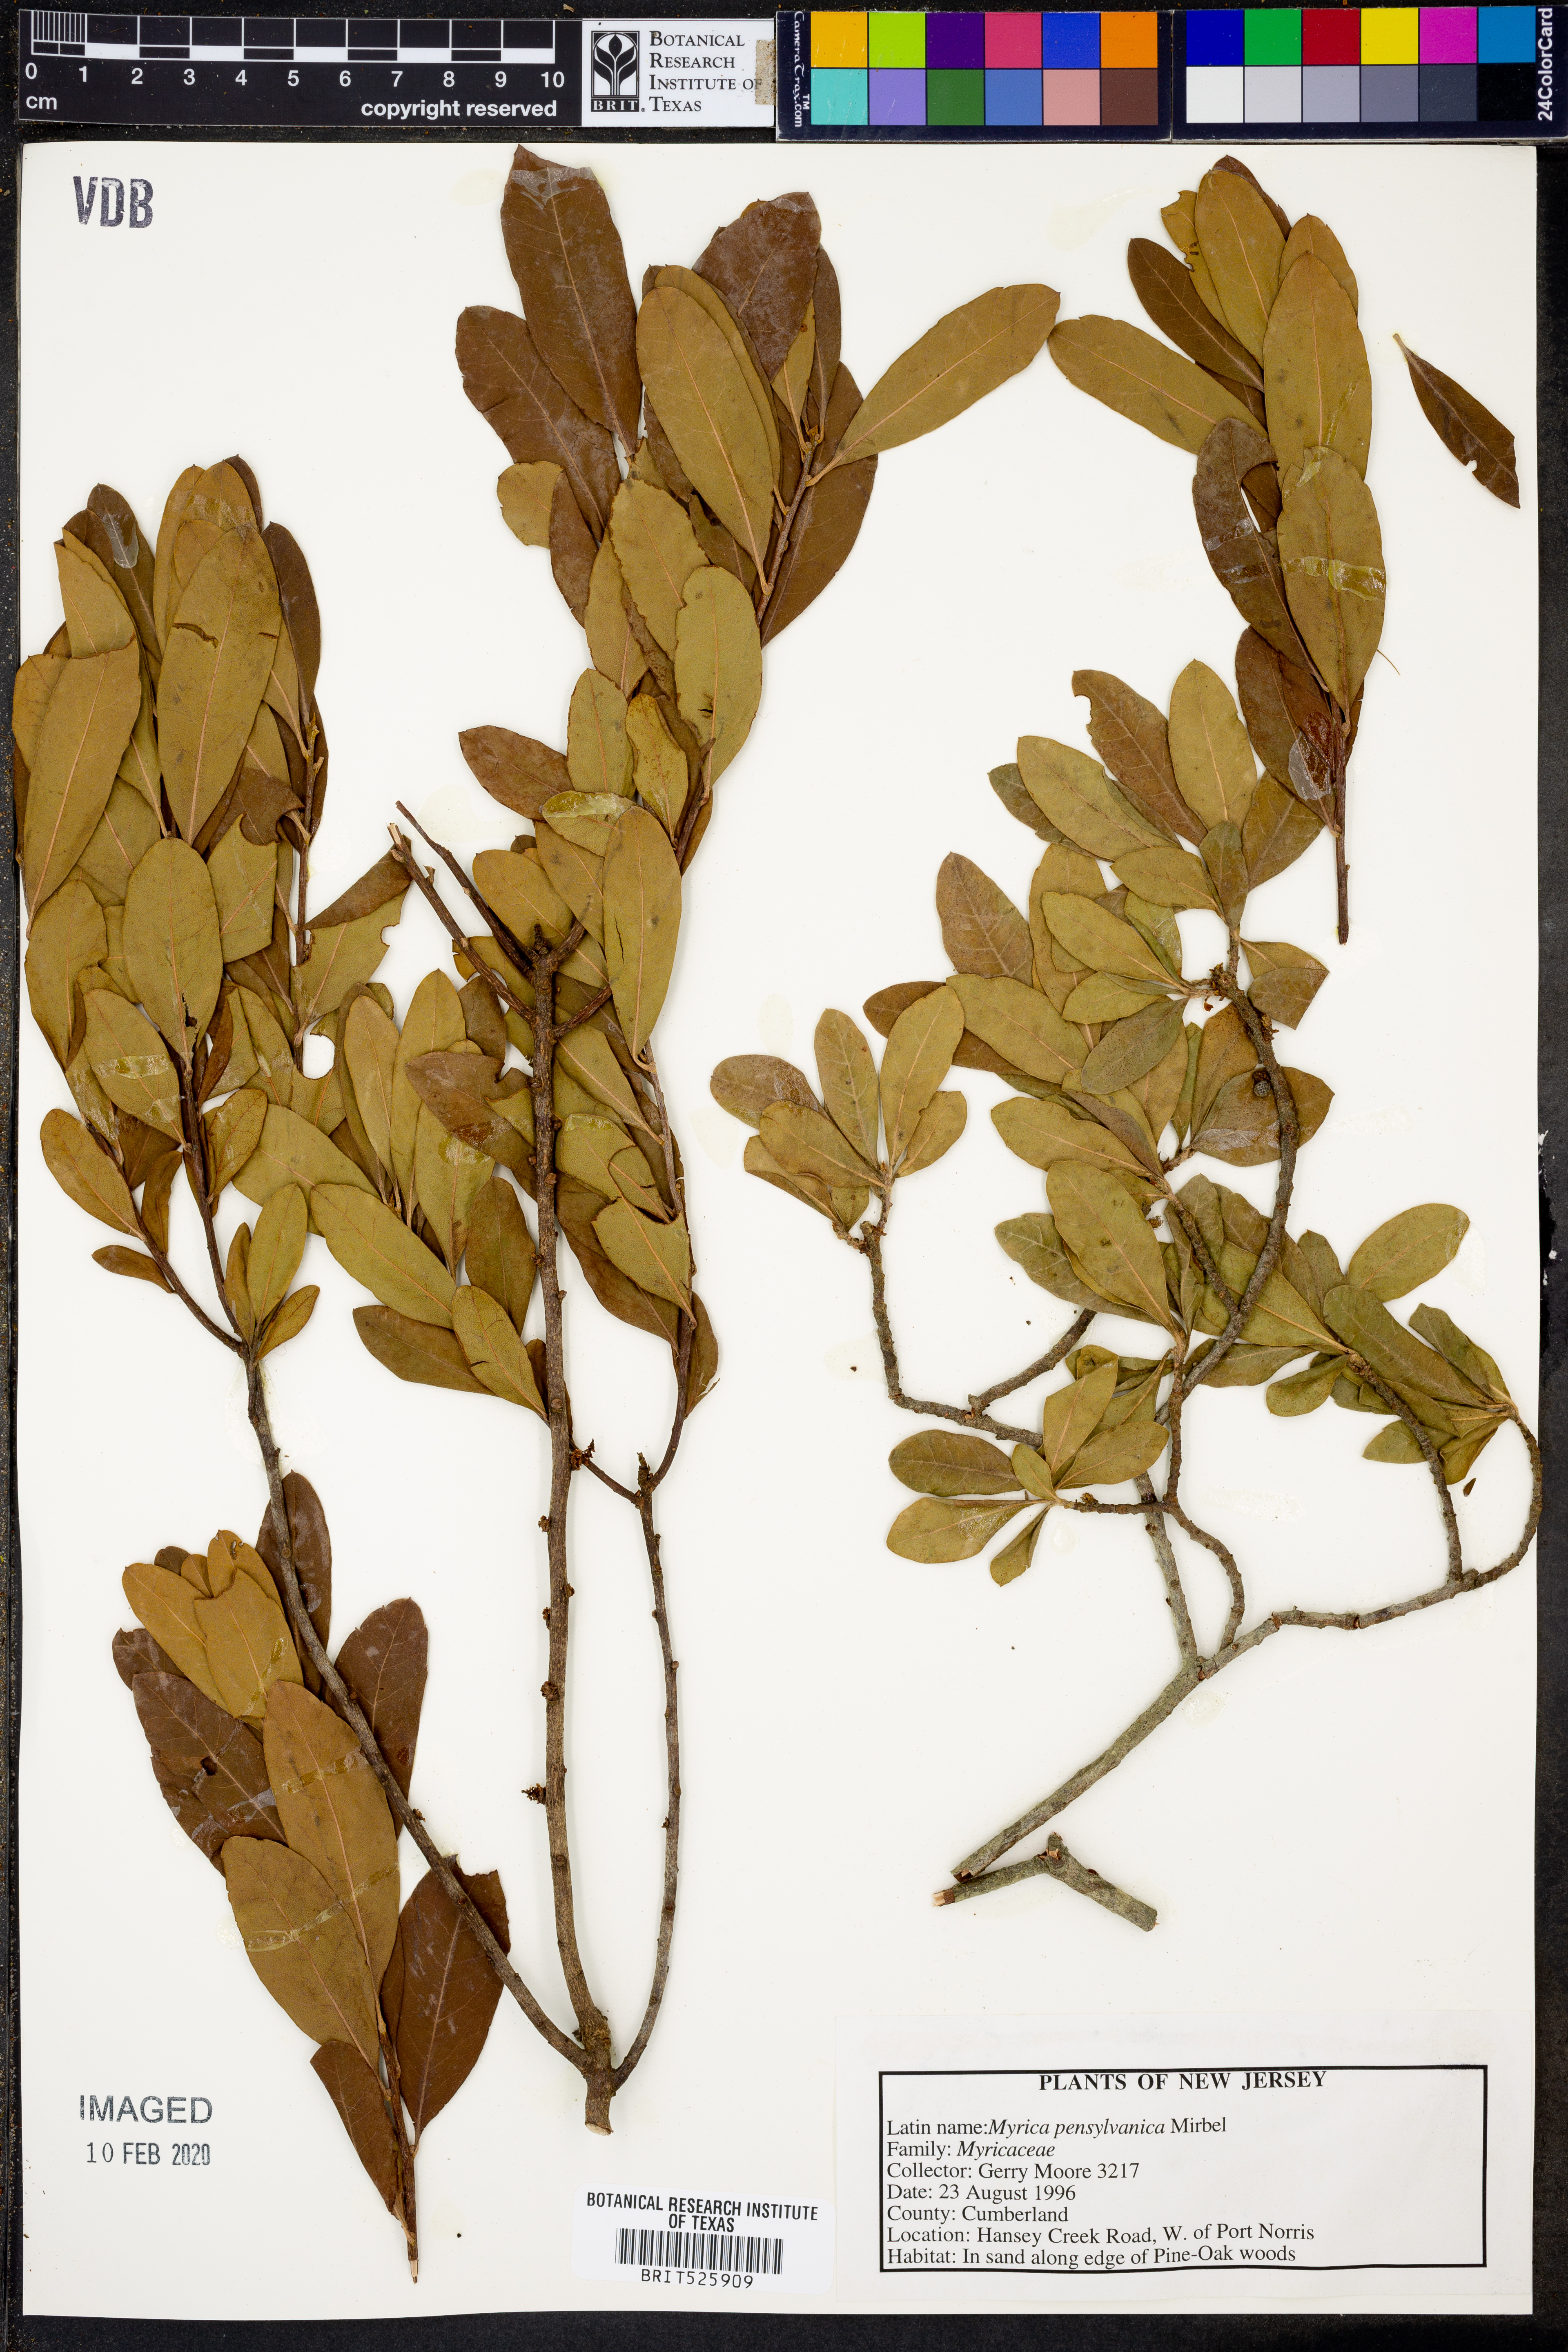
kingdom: Plantae
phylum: Tracheophyta
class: Magnoliopsida
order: Fagales
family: Myricaceae
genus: Morella
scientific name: Morella pensylvanica
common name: Northern bayberry
